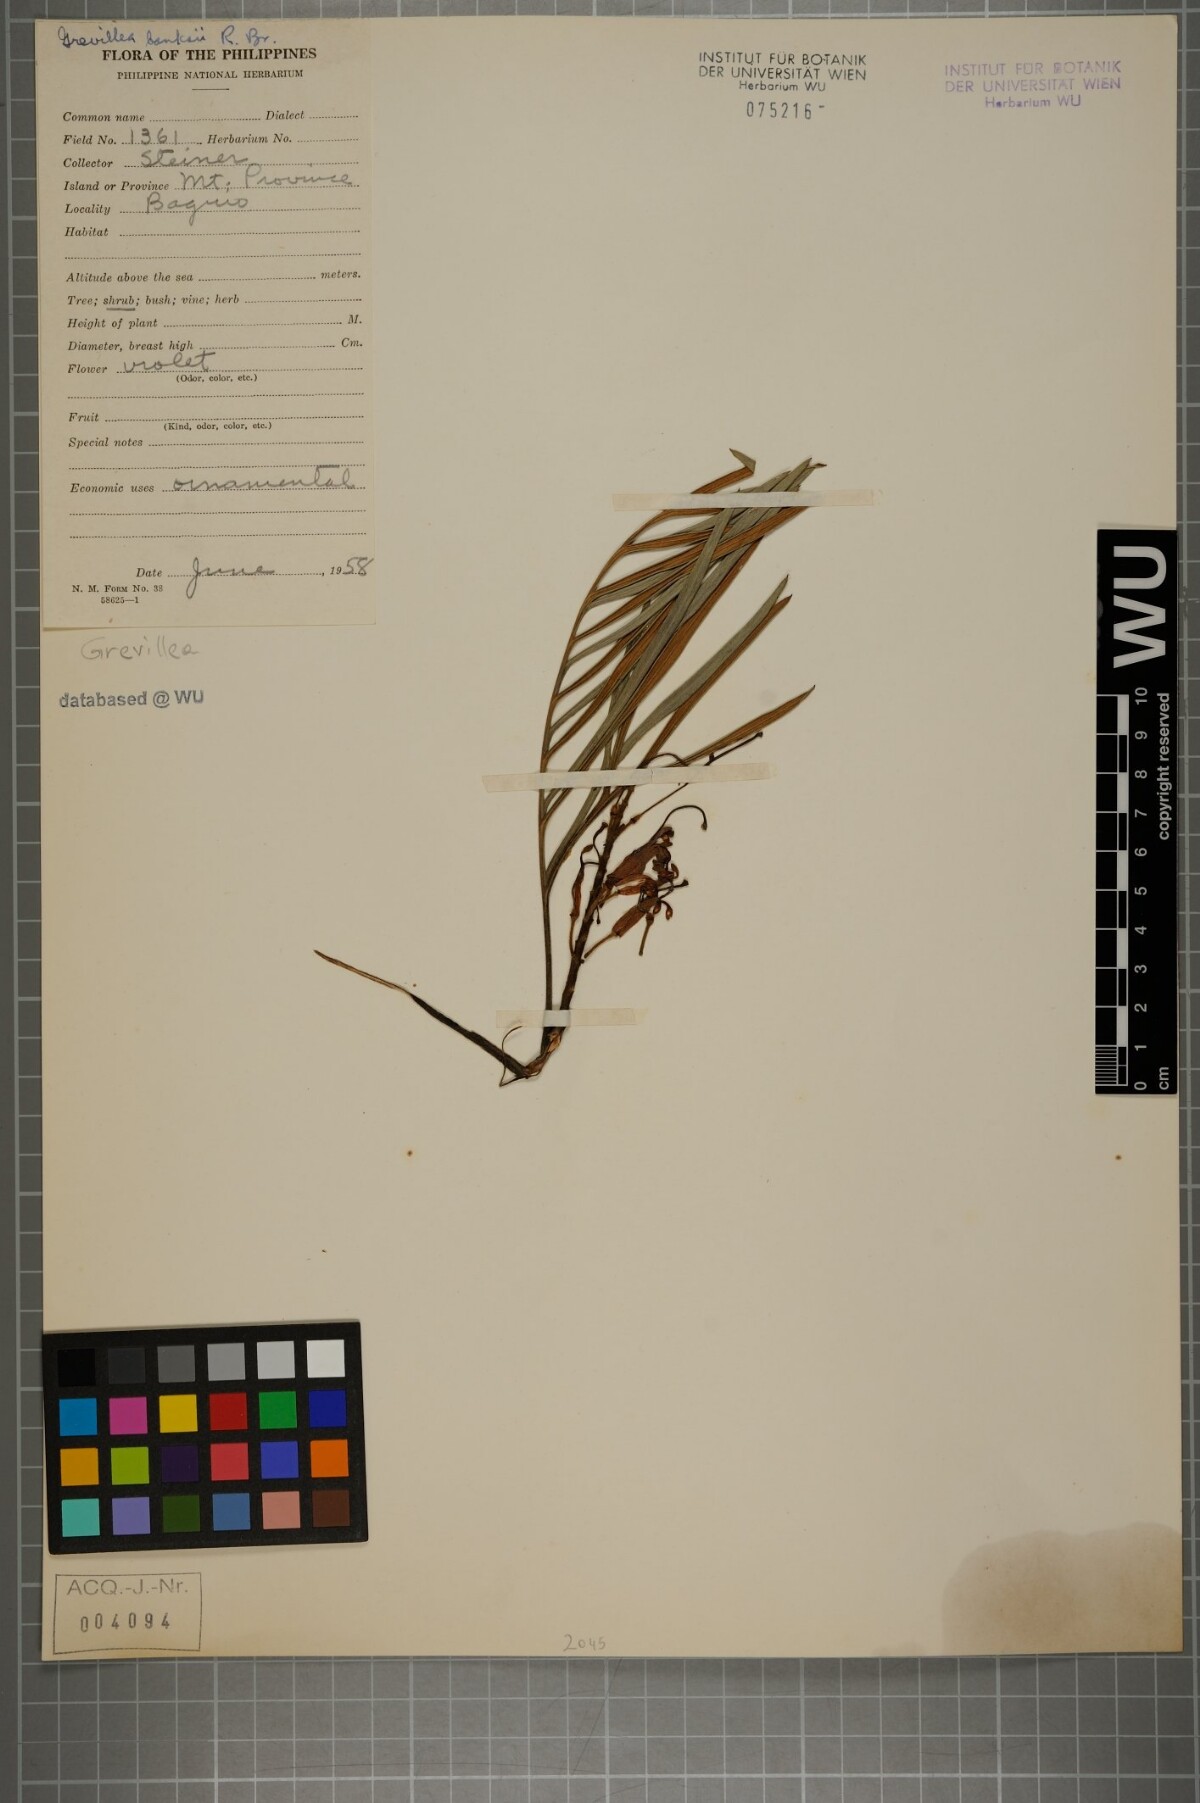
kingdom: Plantae
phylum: Tracheophyta
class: Magnoliopsida
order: Proteales
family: Proteaceae
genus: Grevillea
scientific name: Grevillea banksii
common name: Kahili flower
